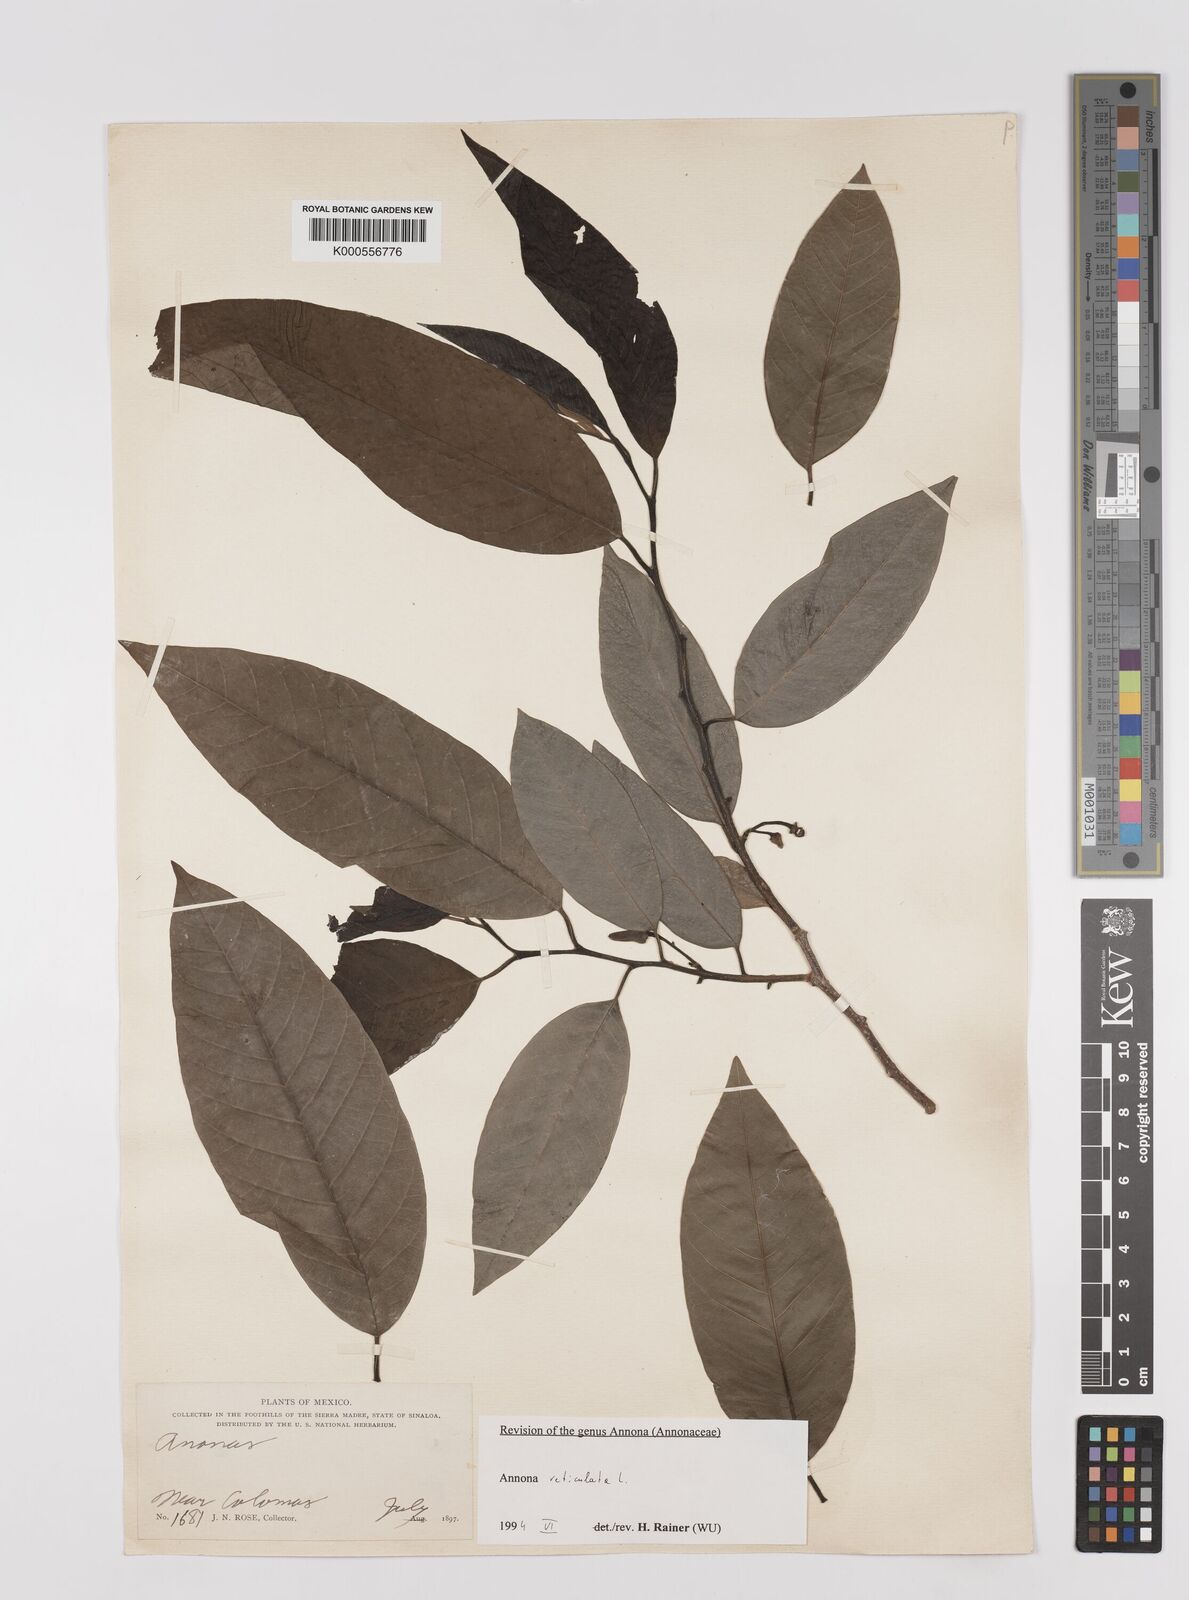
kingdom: Plantae
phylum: Tracheophyta
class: Magnoliopsida
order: Magnoliales
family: Annonaceae
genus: Annona
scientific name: Annona reticulata
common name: Custard apple
